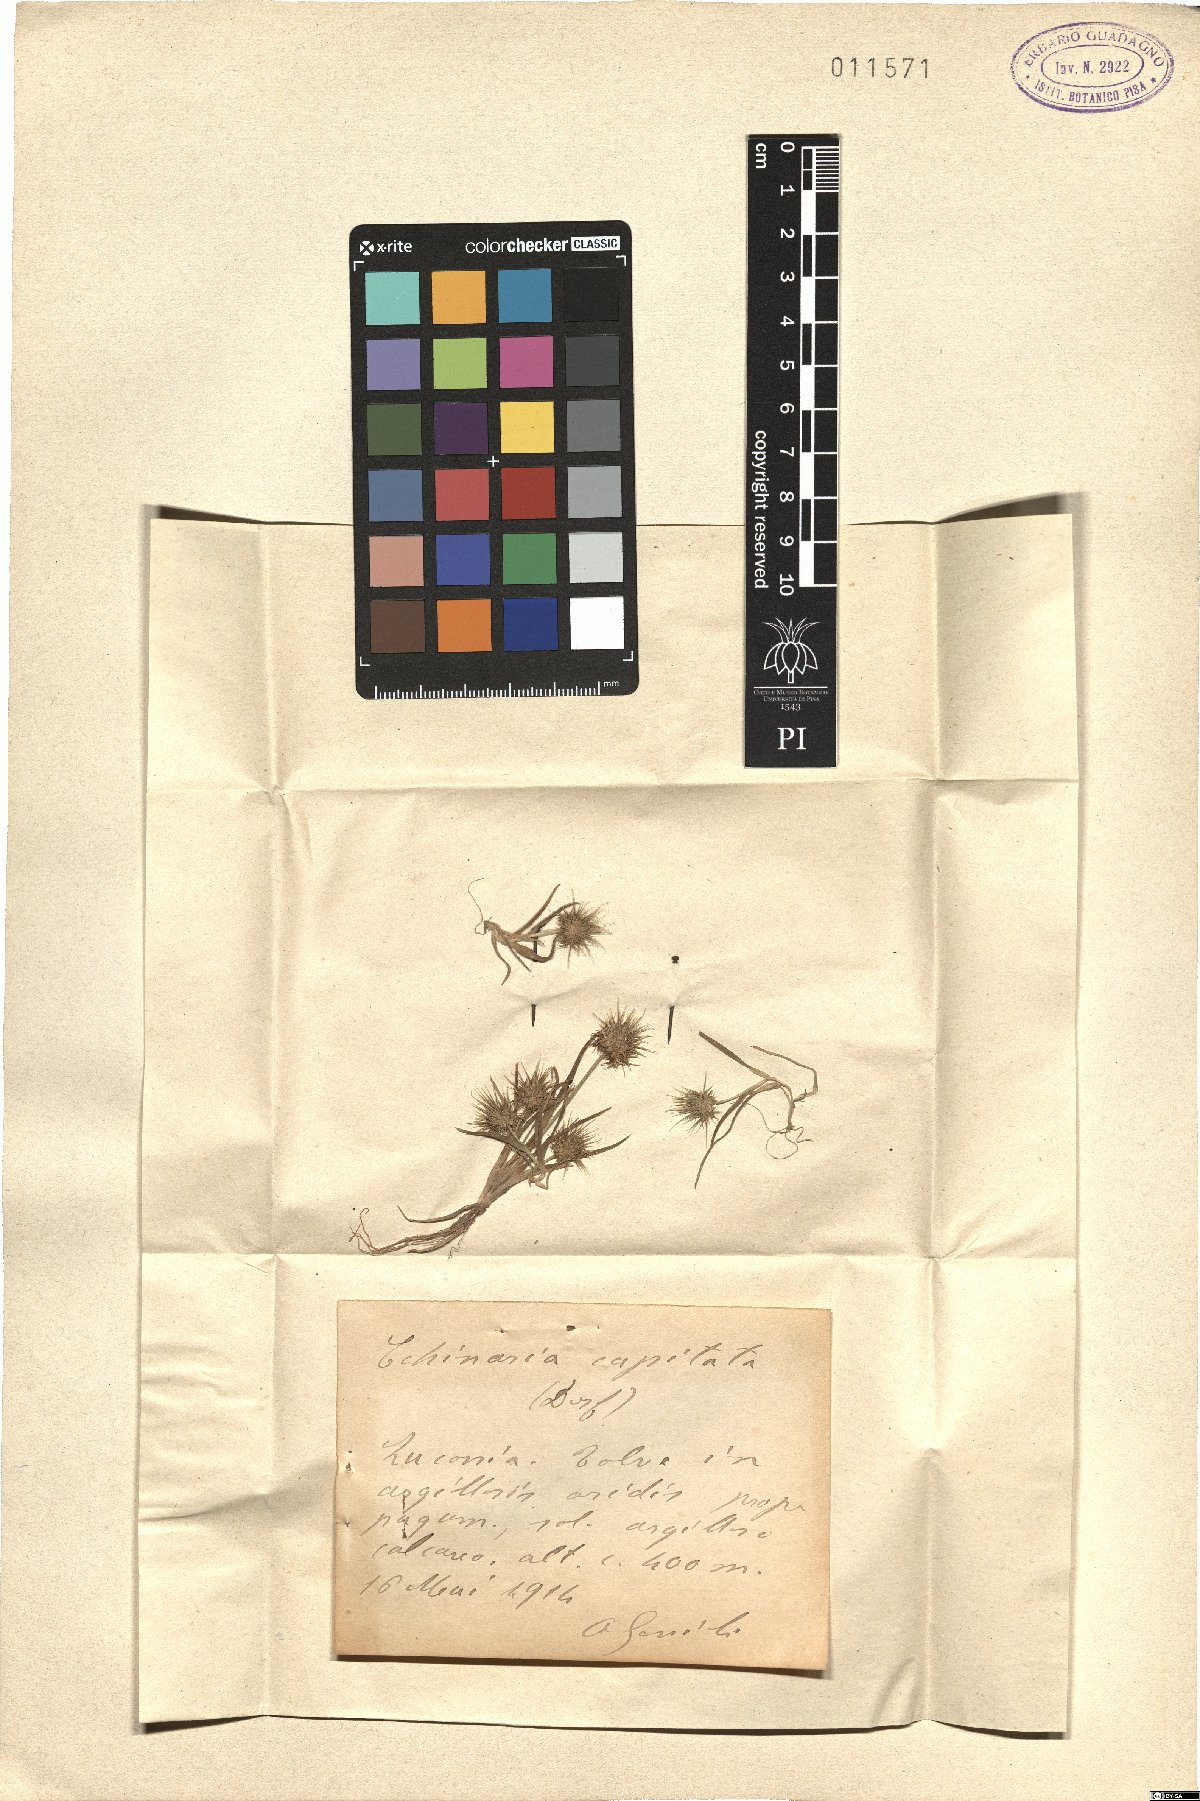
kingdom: Plantae
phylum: Tracheophyta
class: Liliopsida
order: Poales
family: Poaceae
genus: Echinaria
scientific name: Echinaria capitata
